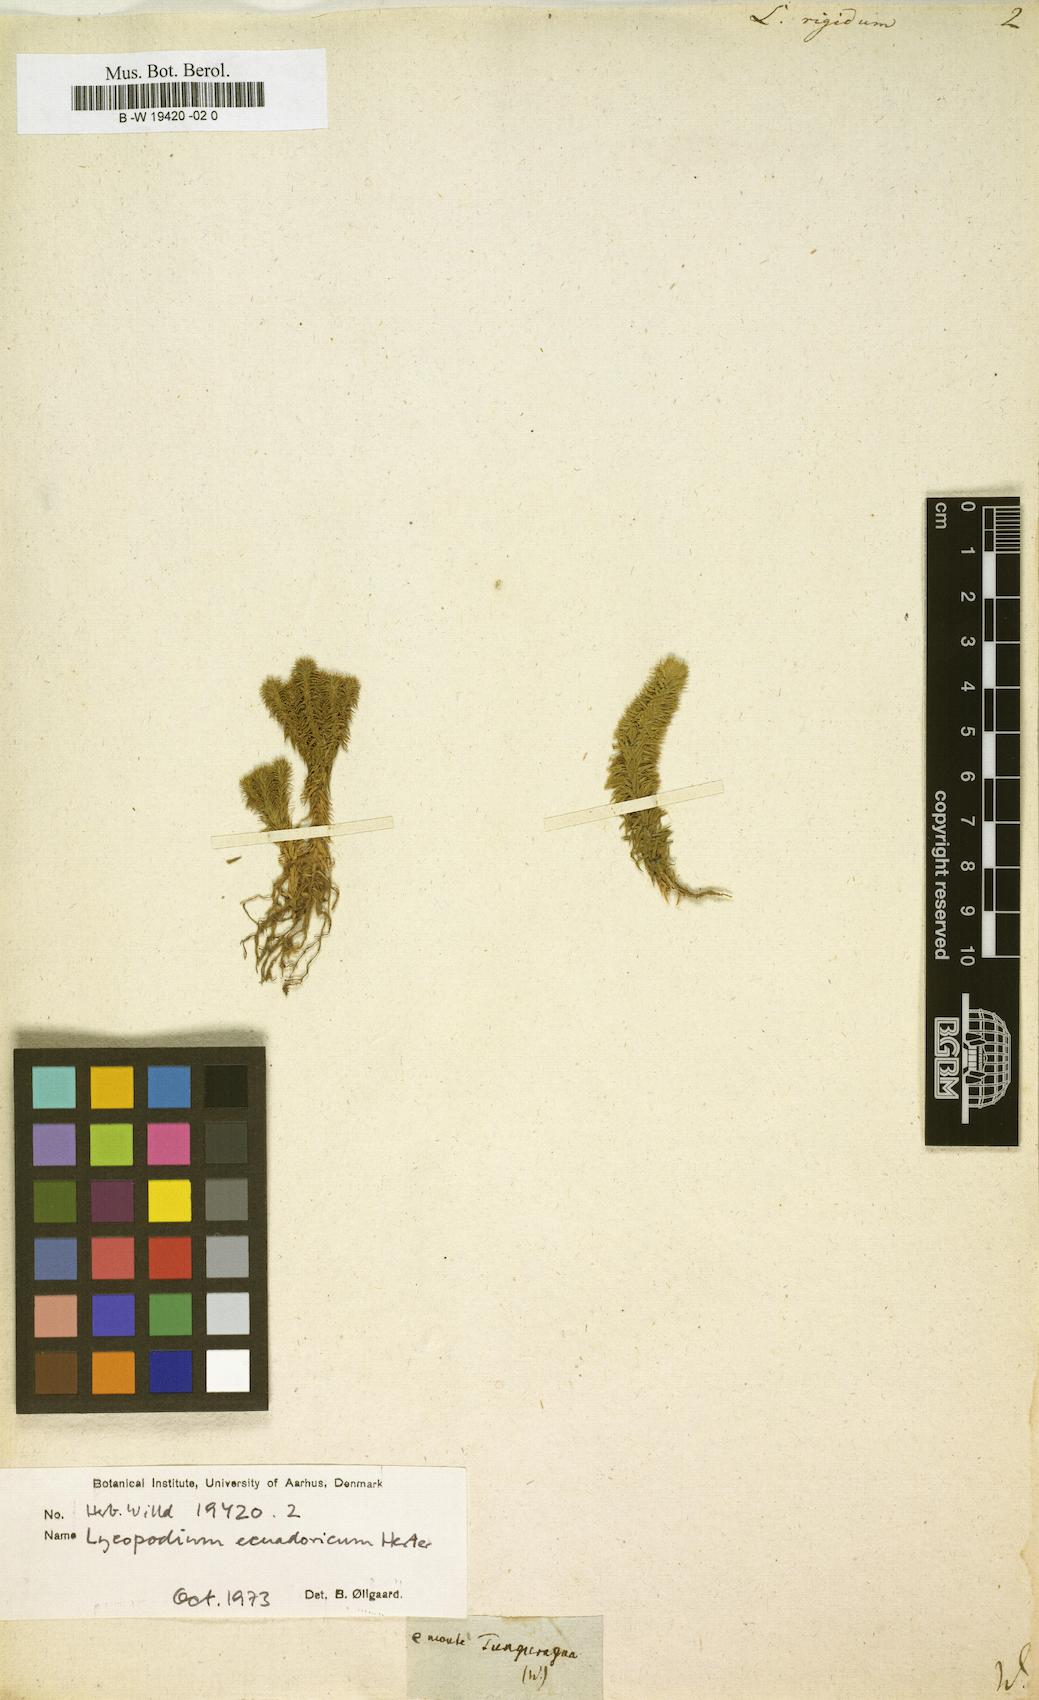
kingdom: Plantae
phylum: Tracheophyta
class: Lycopodiopsida
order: Lycopodiales
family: Lycopodiaceae
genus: Phlegmariurus
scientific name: Phlegmariurus reflexus
